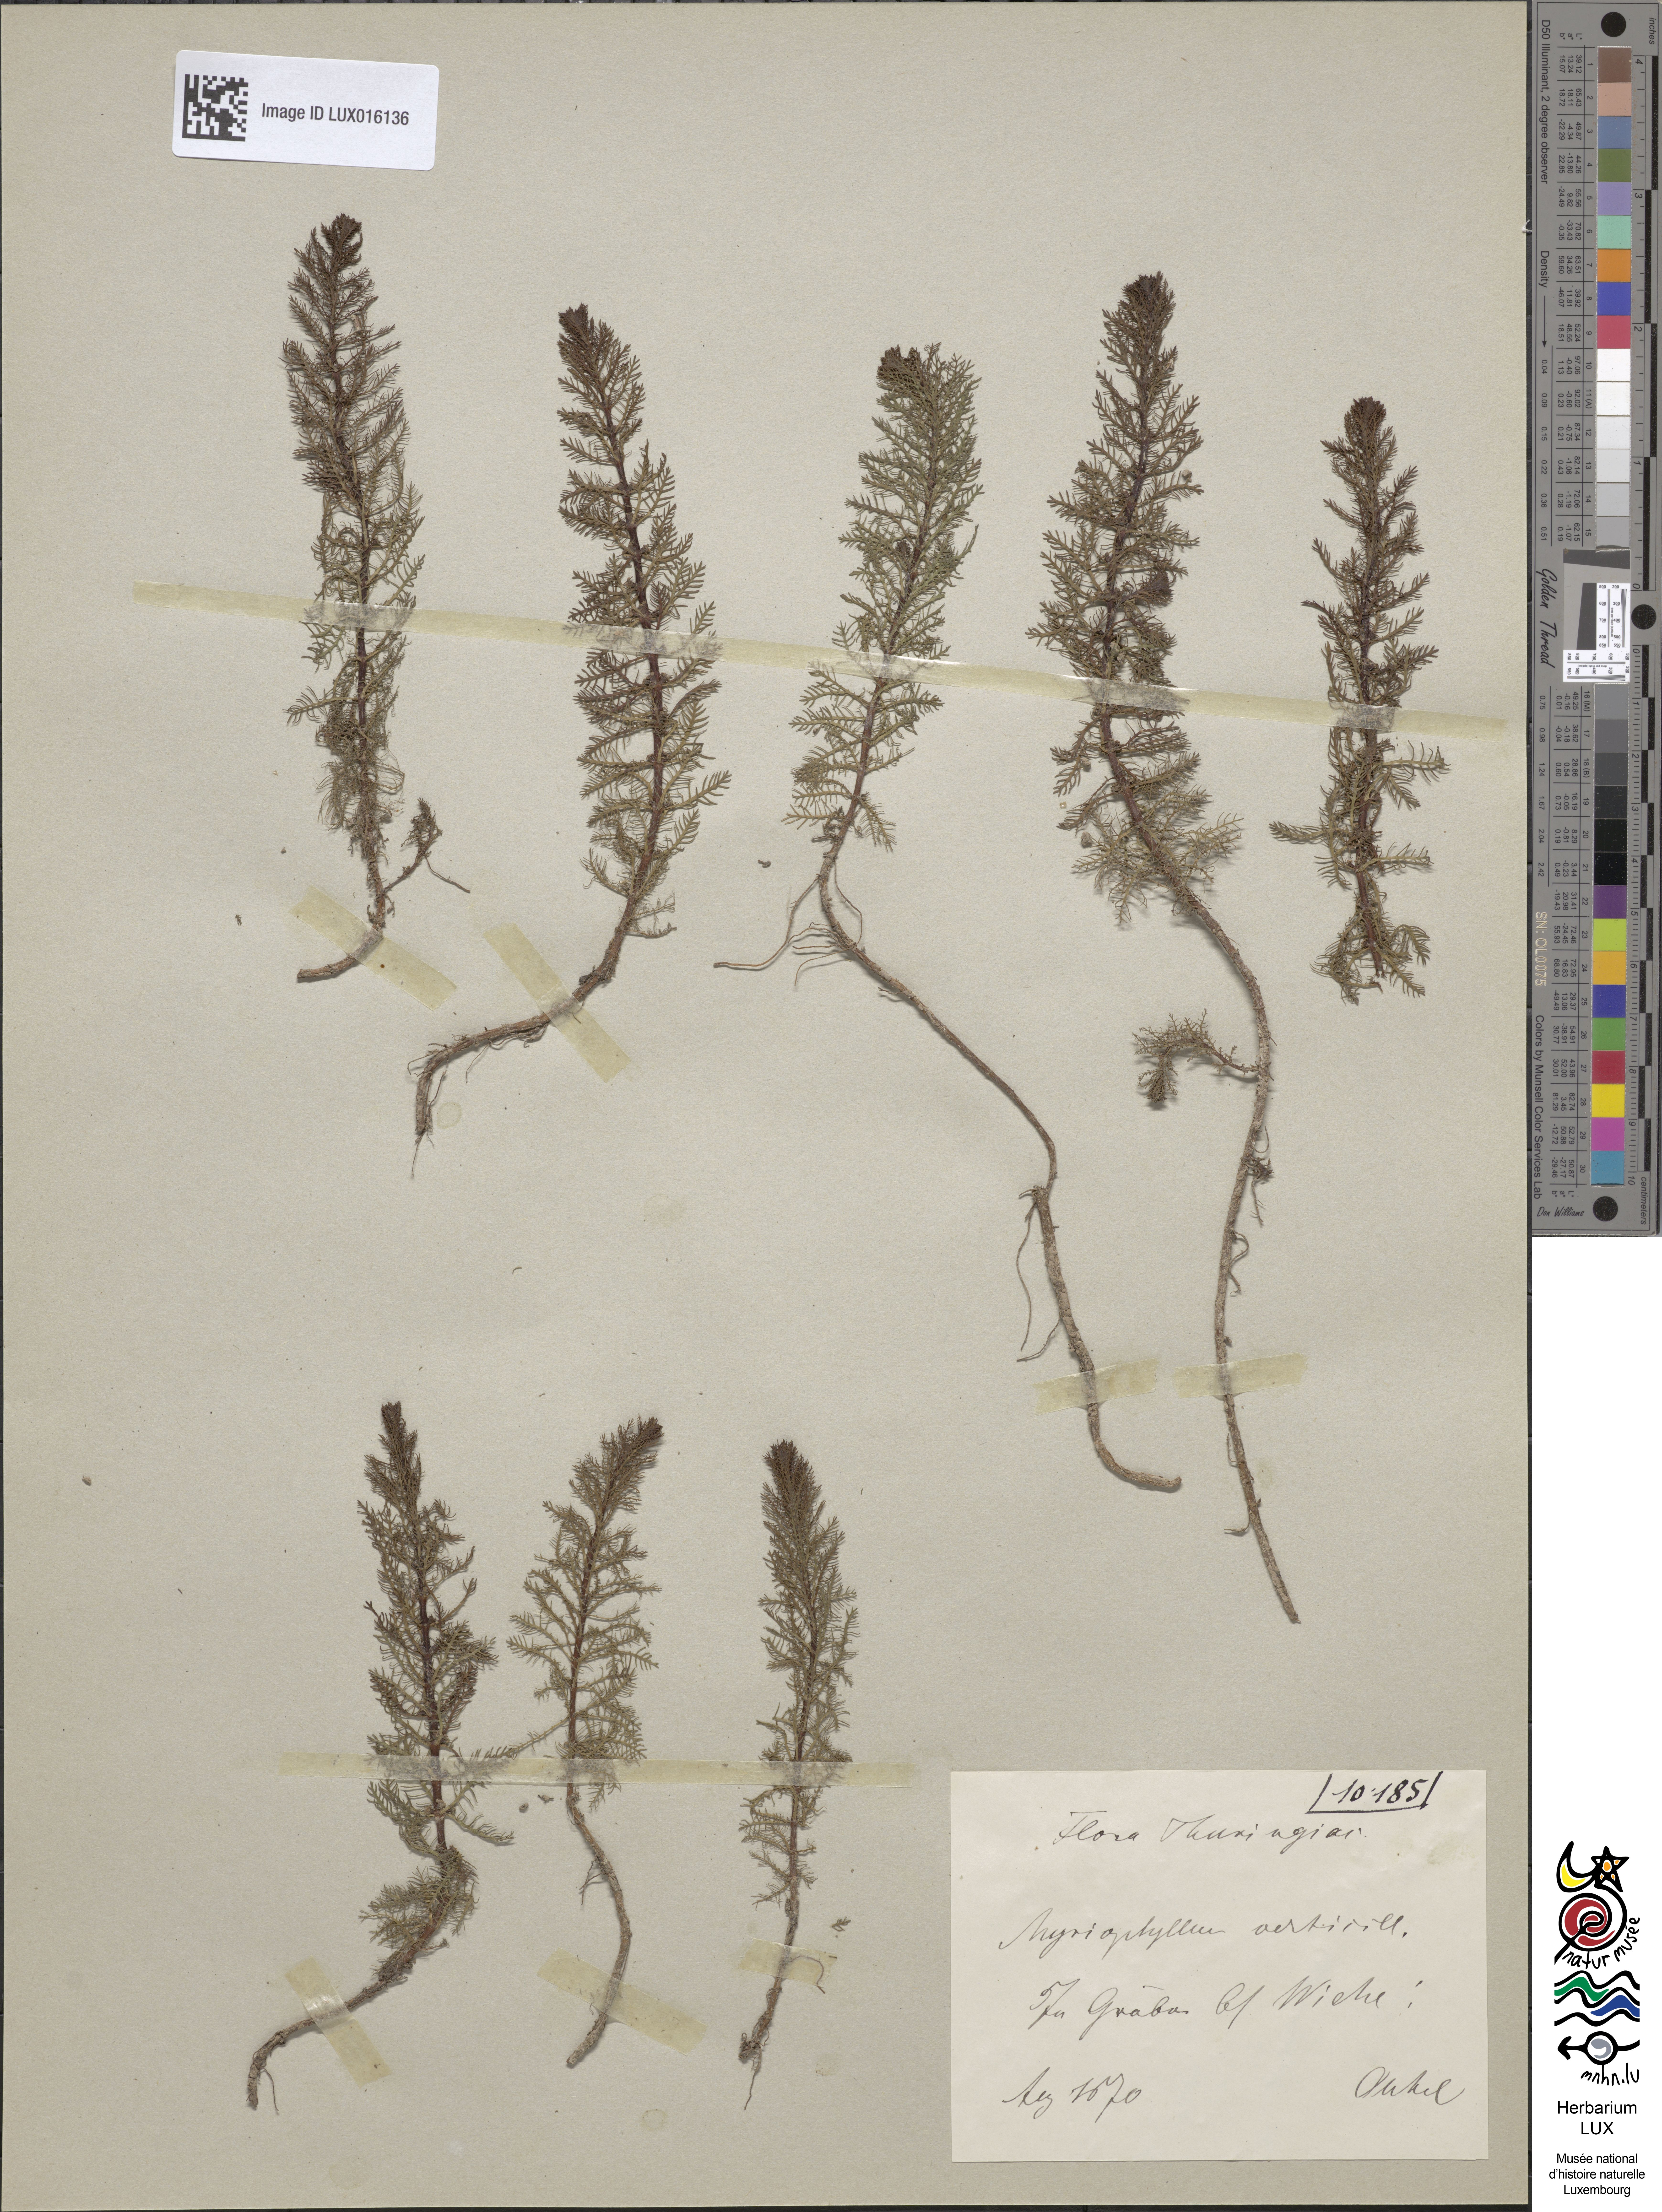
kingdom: Plantae
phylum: Tracheophyta
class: Magnoliopsida
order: Saxifragales
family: Haloragaceae
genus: Myriophyllum
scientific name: Myriophyllum verticillatum
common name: Whorled water-milfoil
